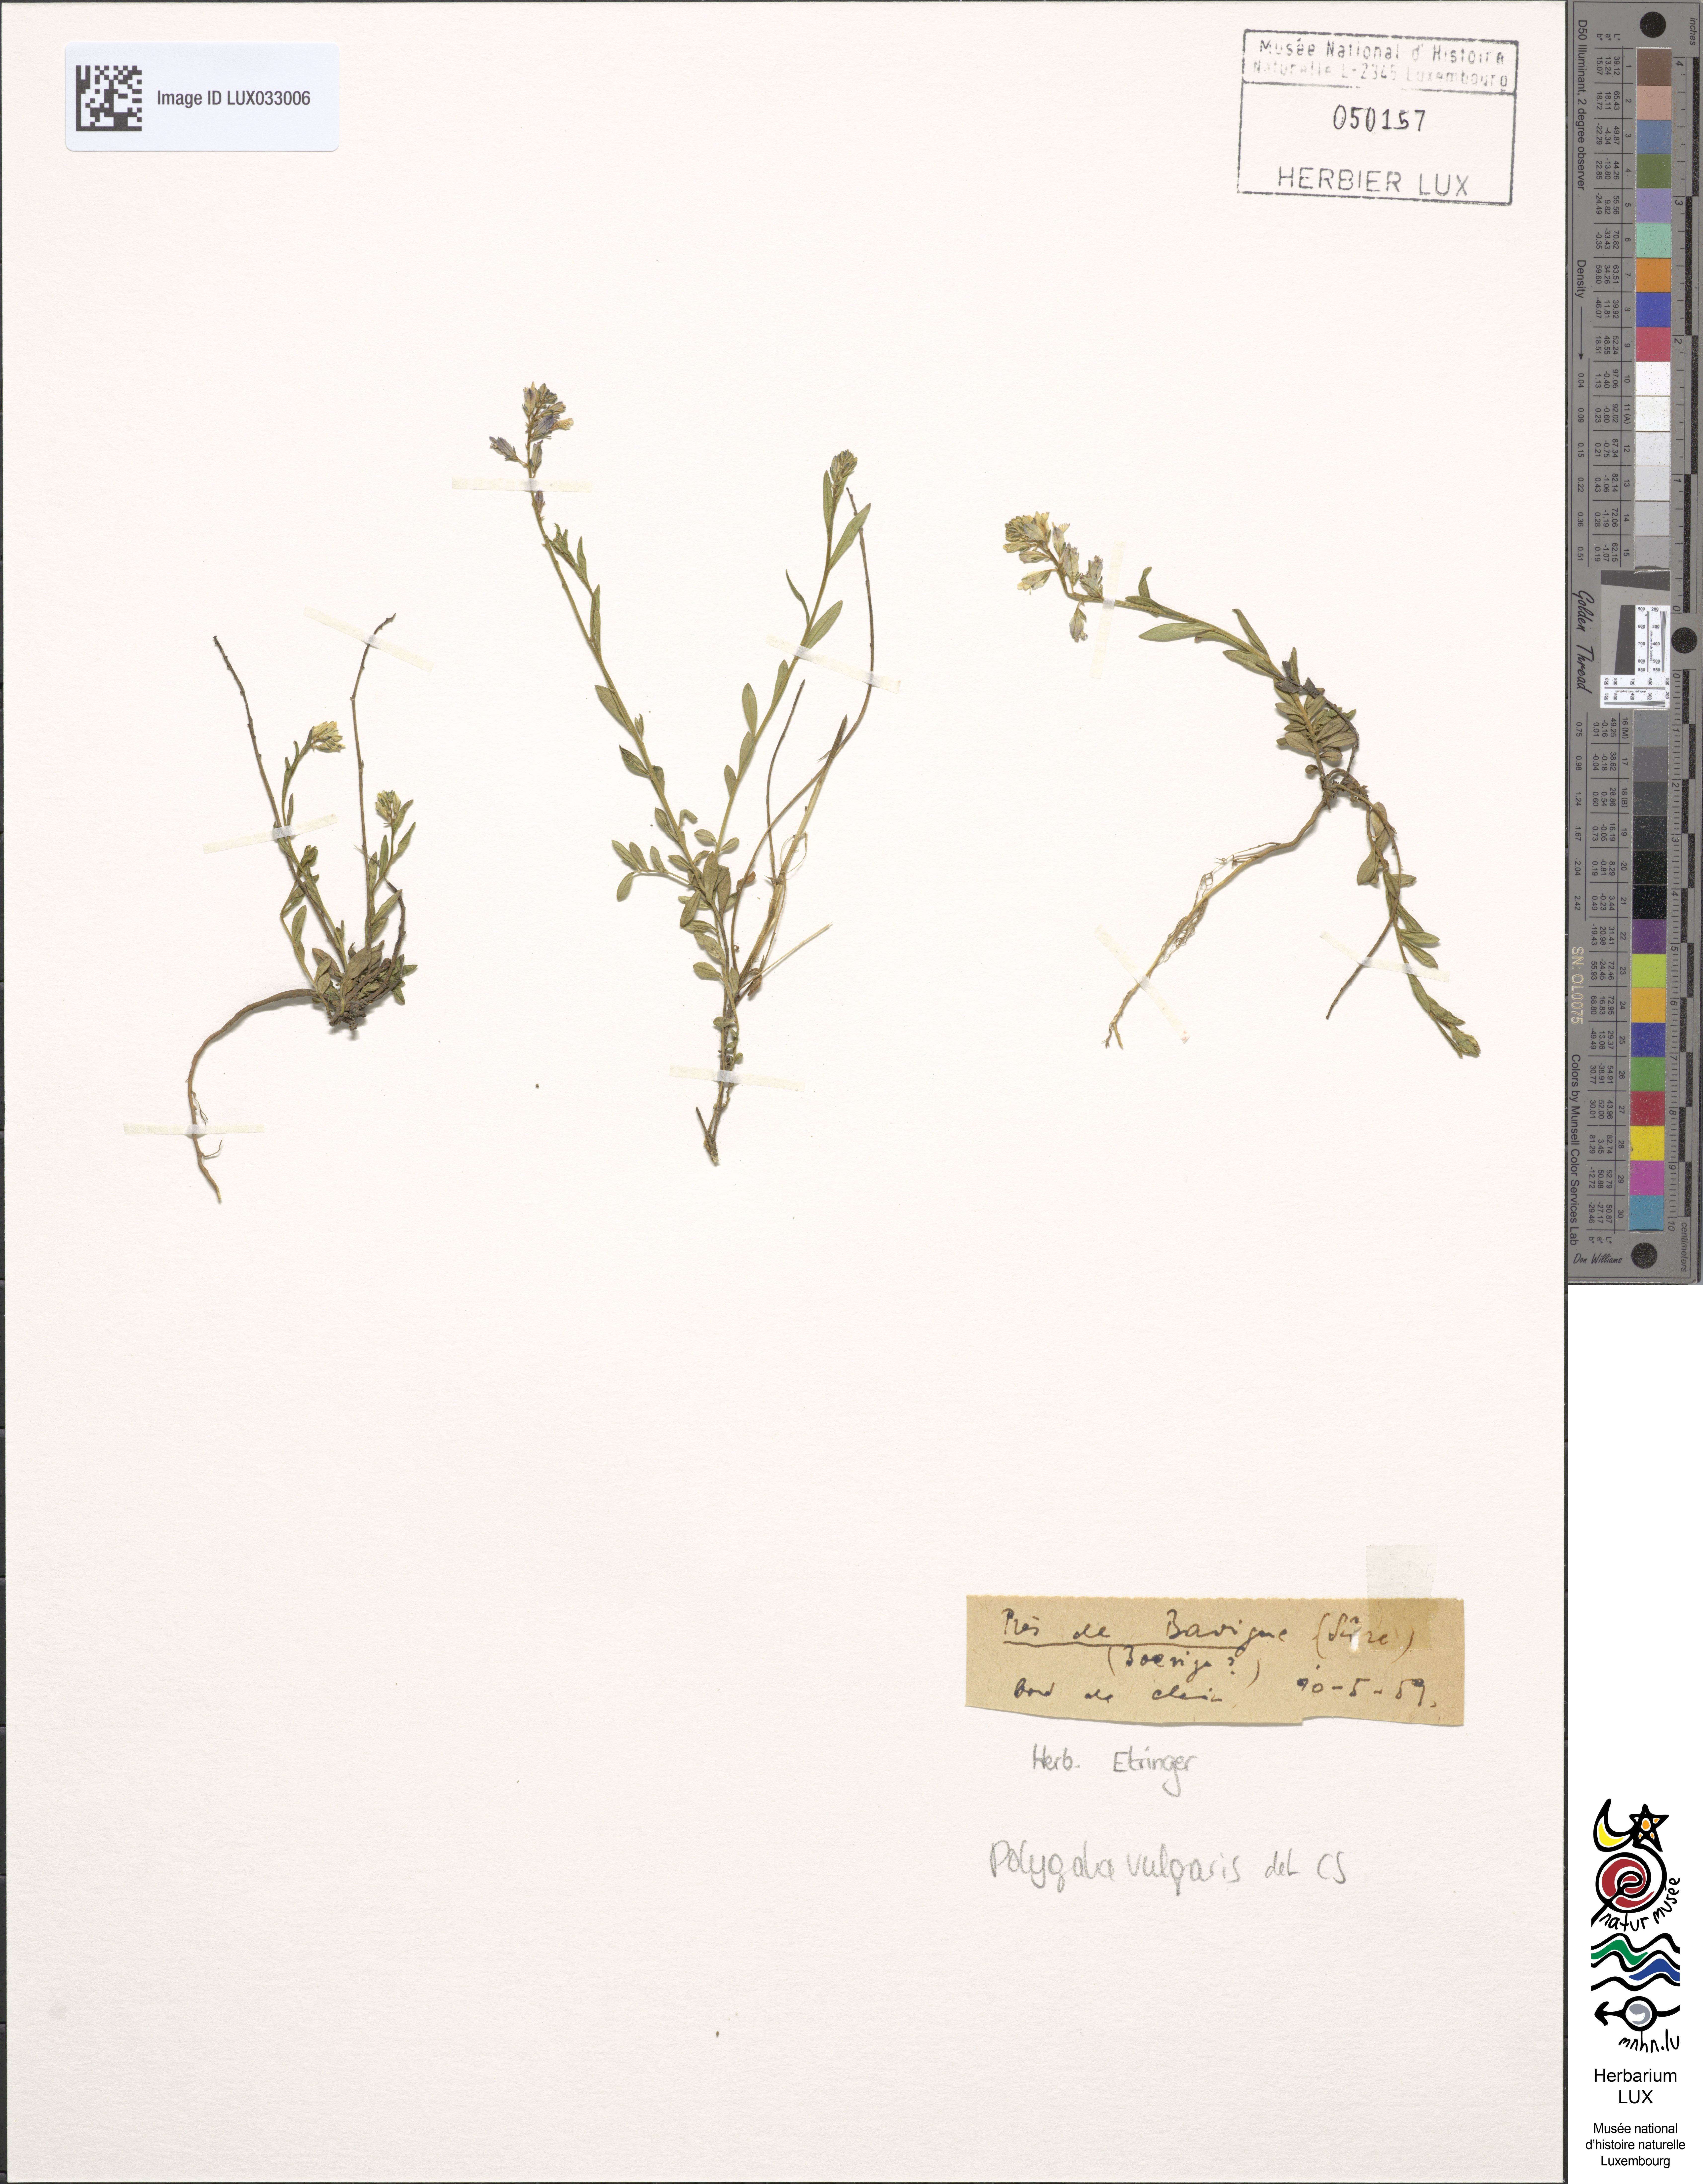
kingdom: Plantae
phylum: Tracheophyta
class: Magnoliopsida
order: Fabales
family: Polygalaceae
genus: Polygala
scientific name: Polygala vulgaris
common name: Common milkwort
